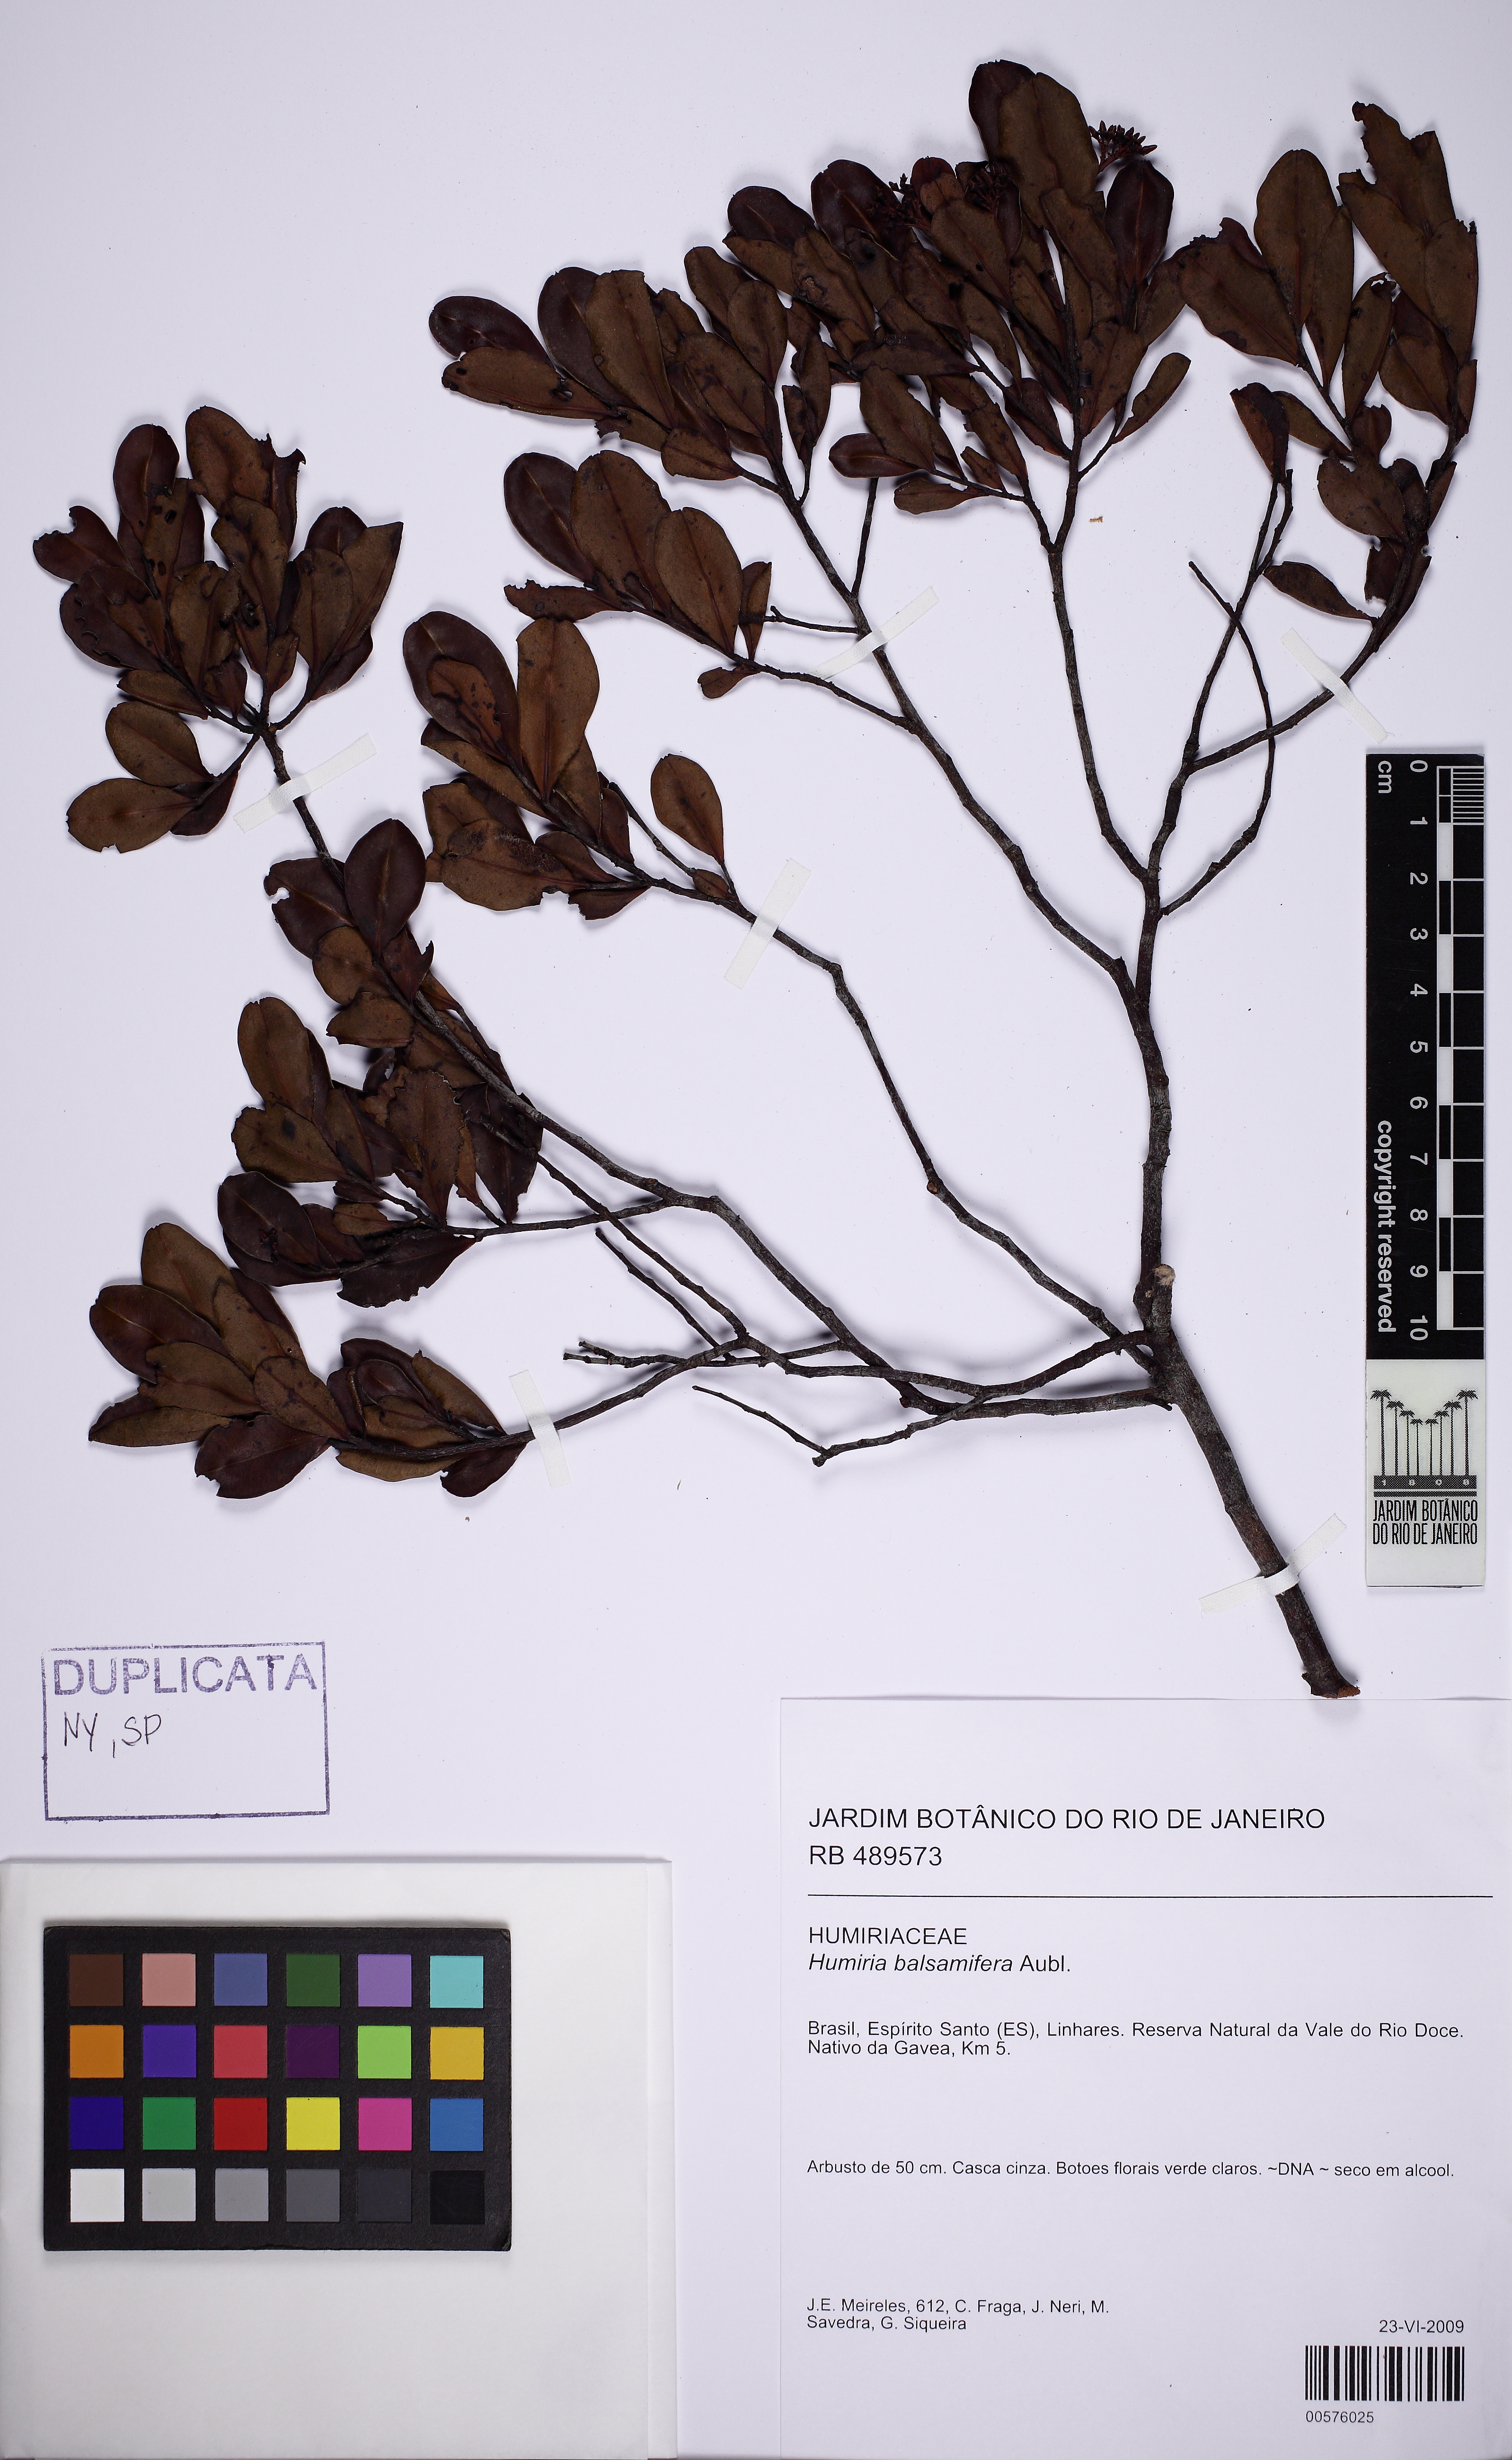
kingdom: Plantae
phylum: Tracheophyta
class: Magnoliopsida
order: Malpighiales
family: Humiriaceae
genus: Humiria
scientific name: Humiria balsamifera
